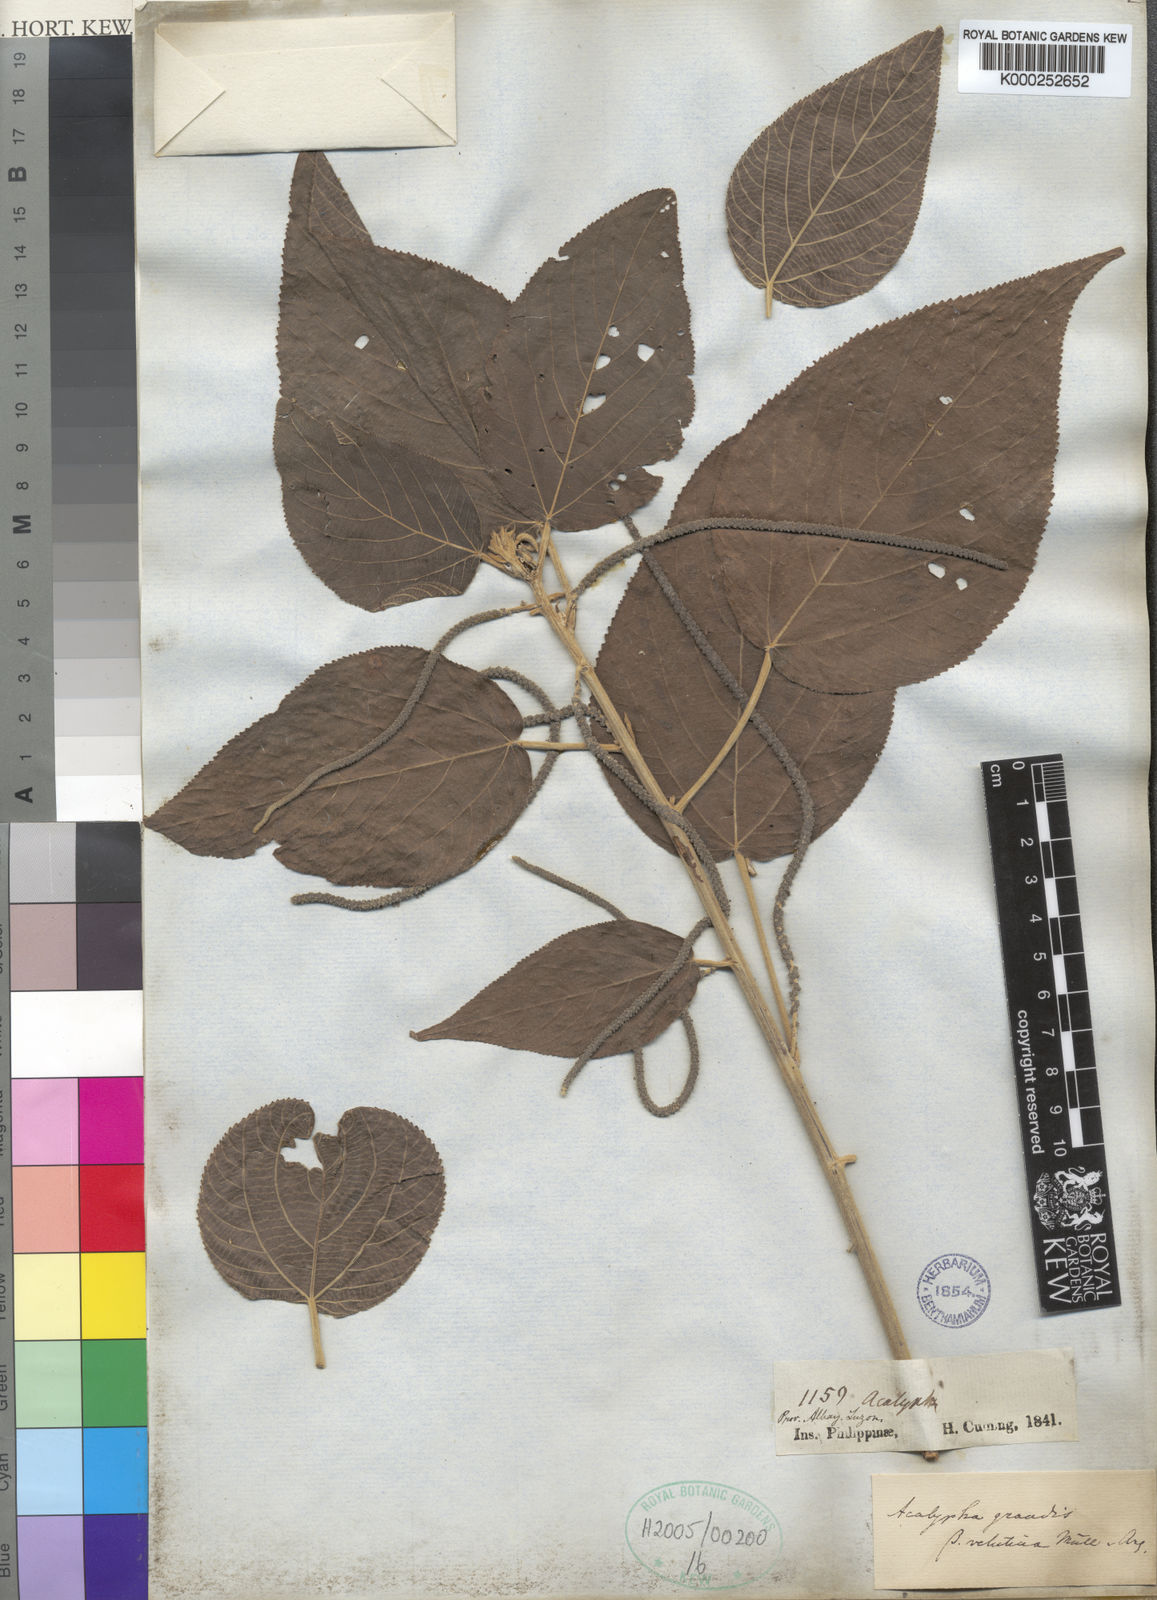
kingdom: Plantae
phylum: Tracheophyta
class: Magnoliopsida
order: Malpighiales
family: Euphorbiaceae
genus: Acalypha
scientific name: Acalypha angatensis
